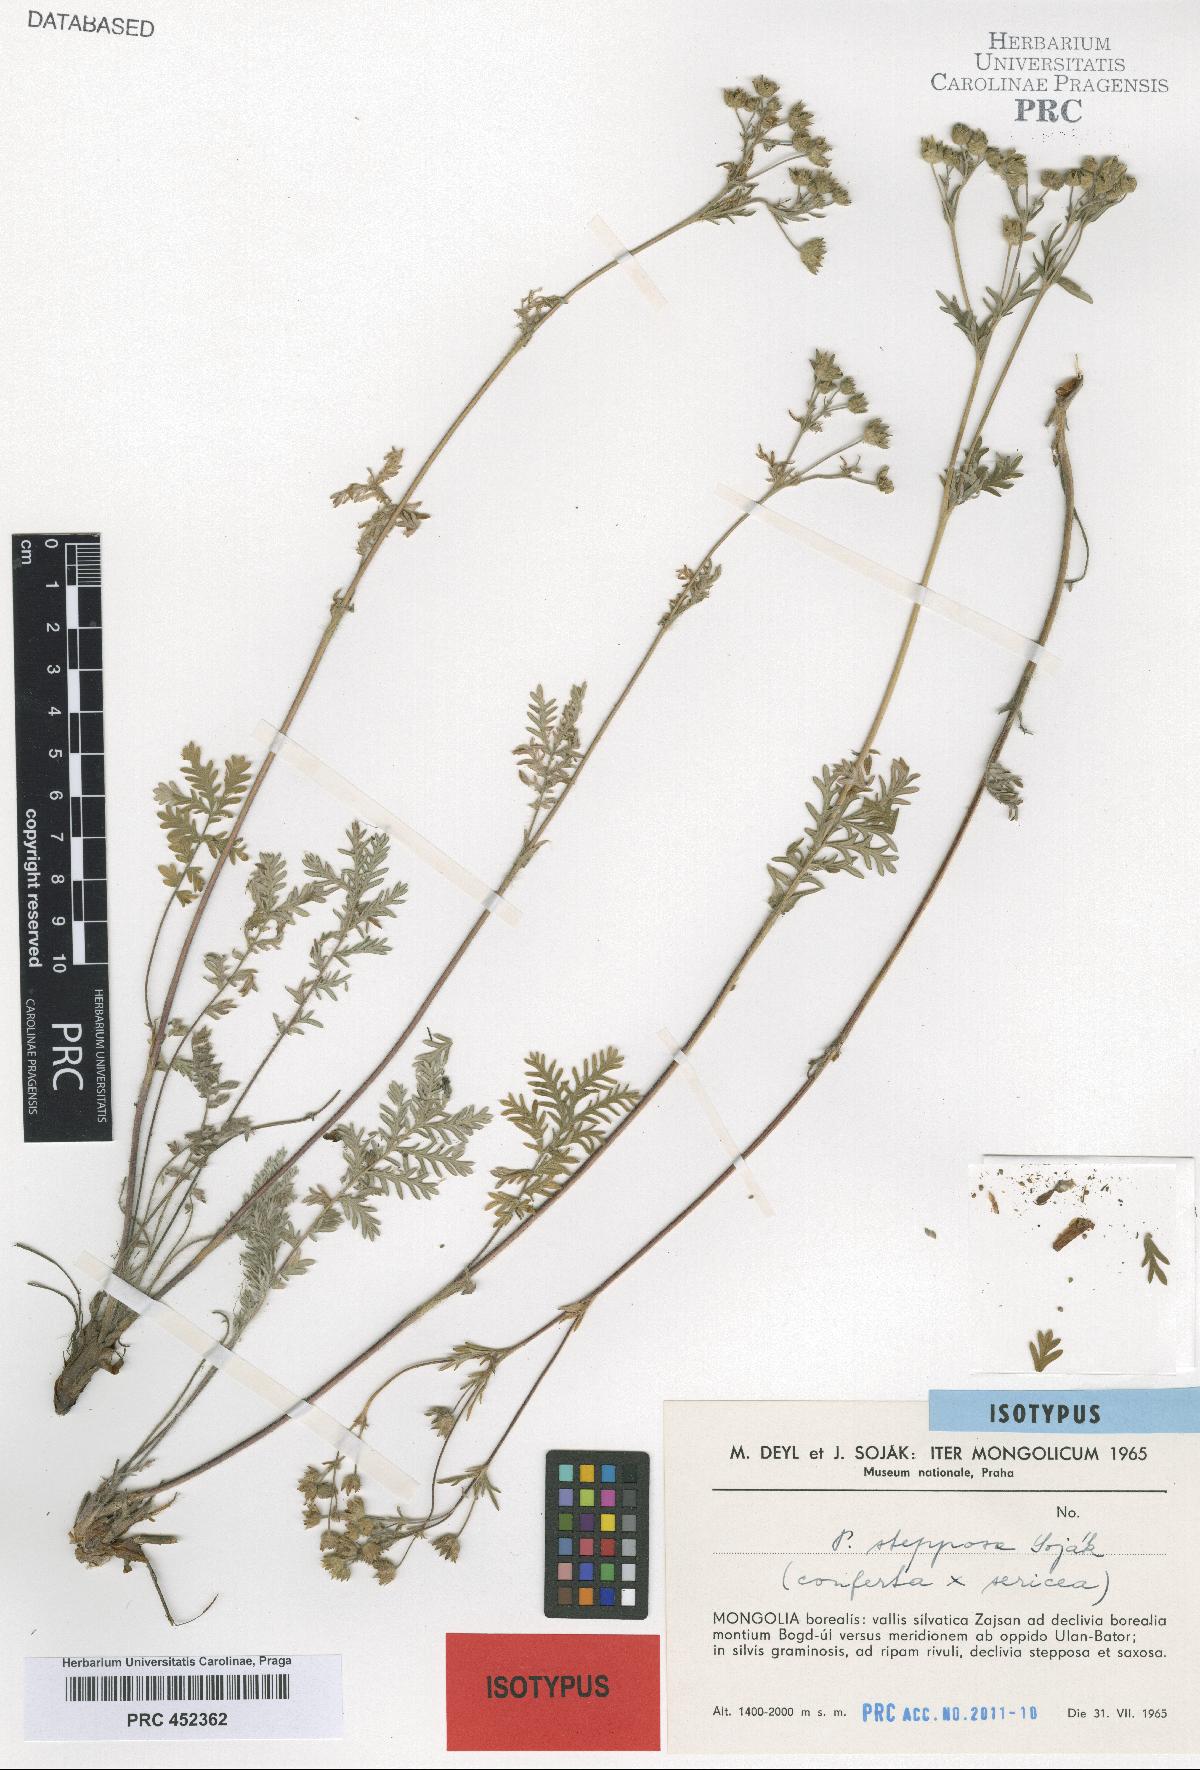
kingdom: Plantae
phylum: Tracheophyta
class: Magnoliopsida
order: Rosales
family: Rosaceae
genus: Potentilla
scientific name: Potentilla stepposa
